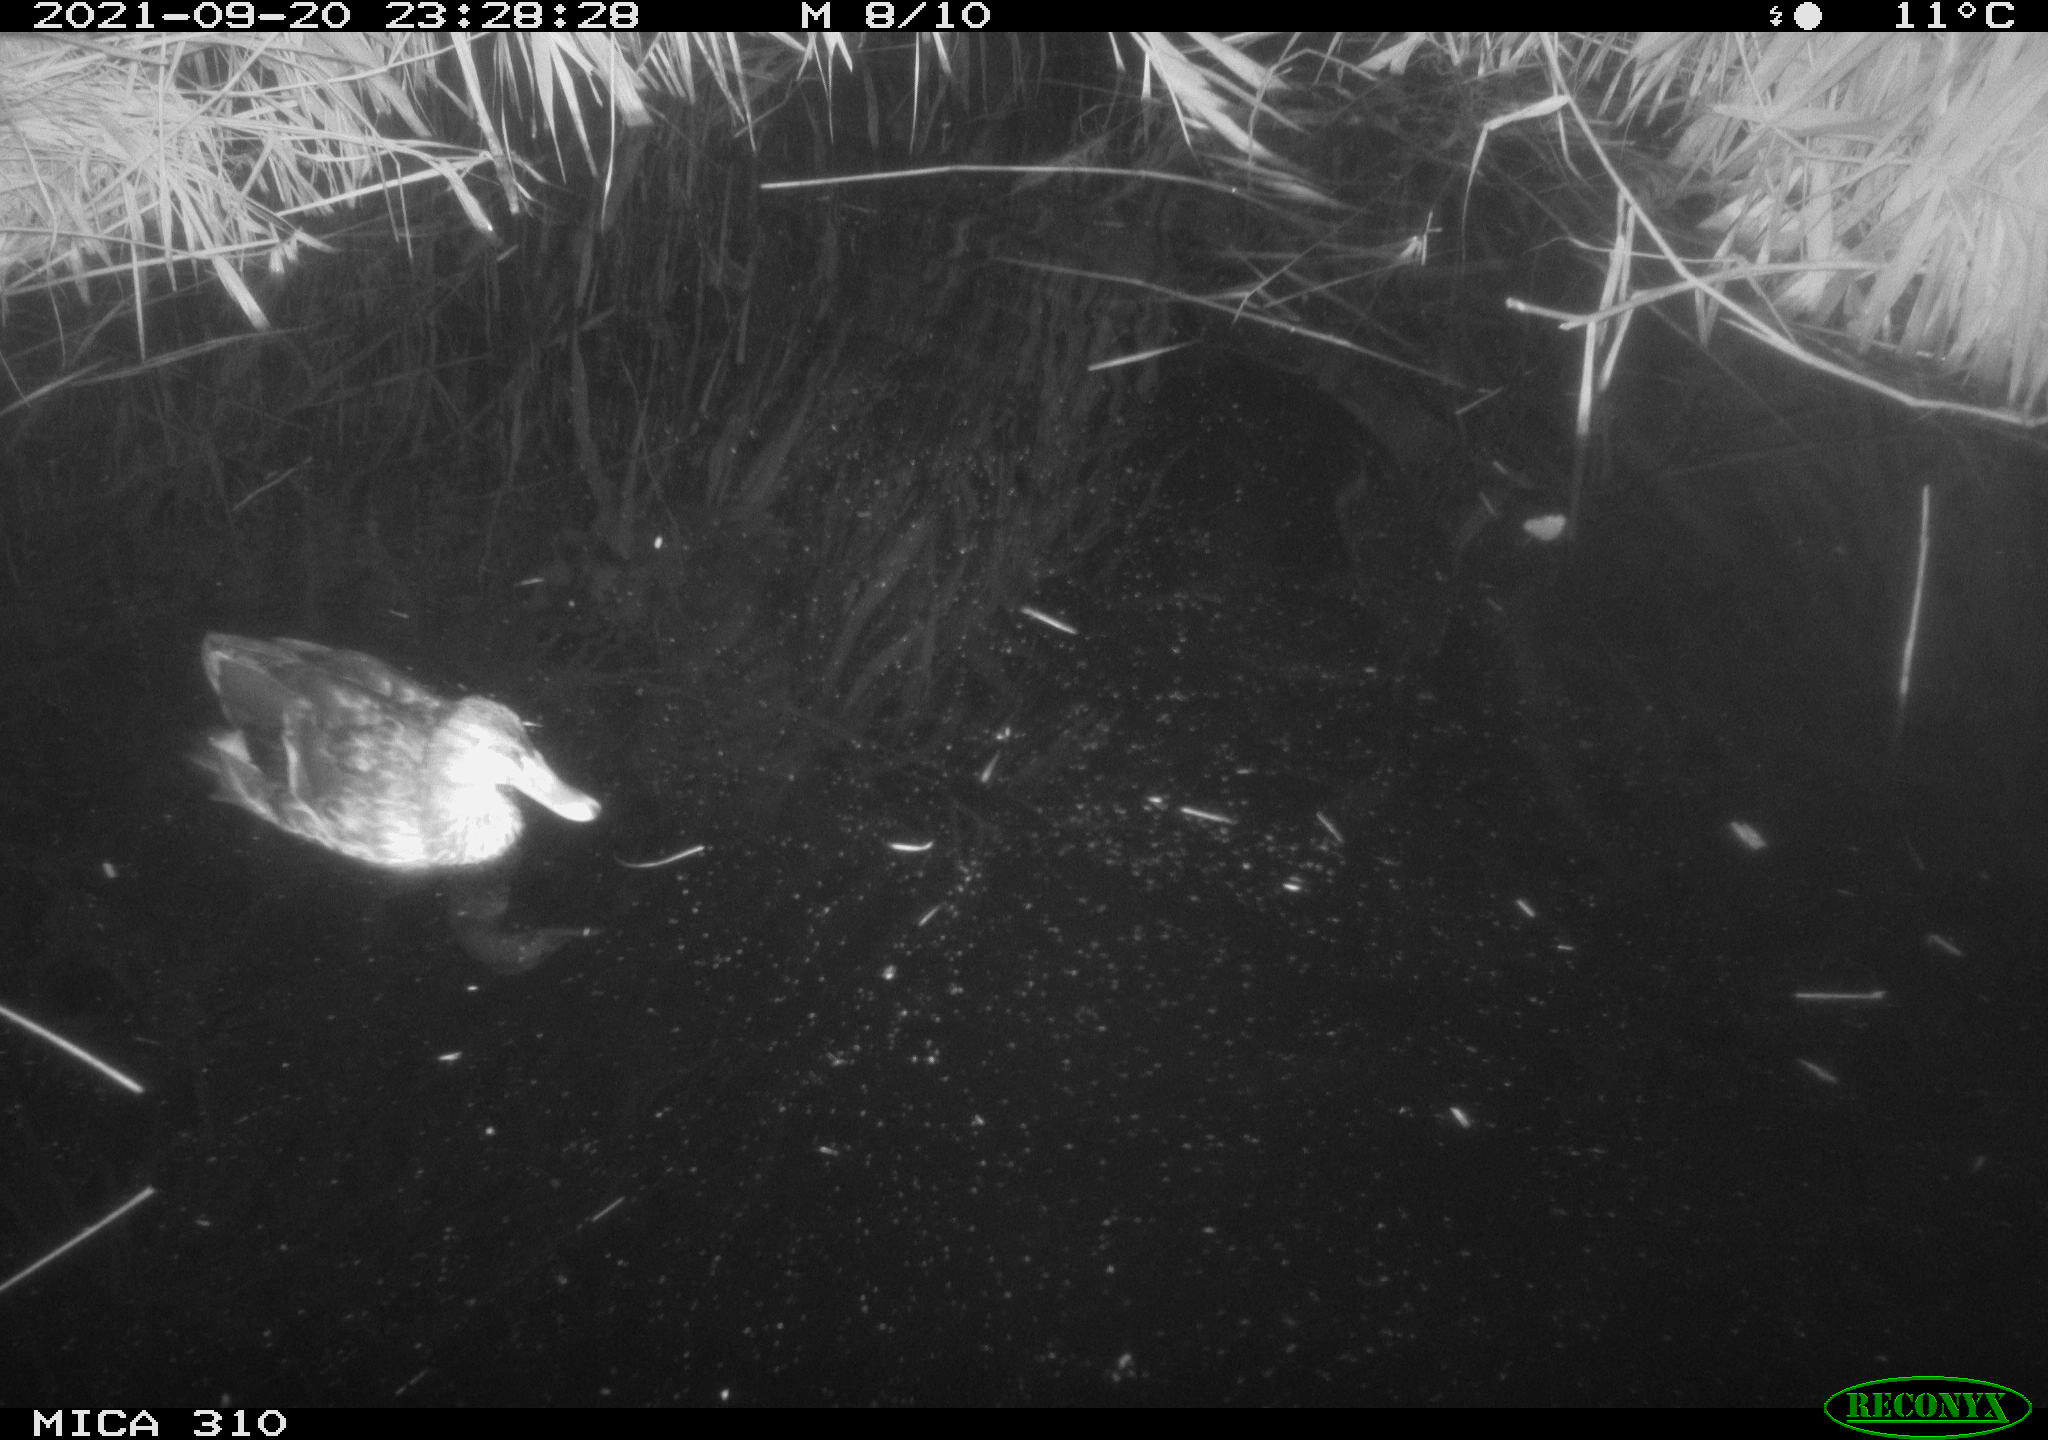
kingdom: Animalia
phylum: Chordata
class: Aves
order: Anseriformes
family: Anatidae
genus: Mareca
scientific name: Mareca strepera
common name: Gadwall
